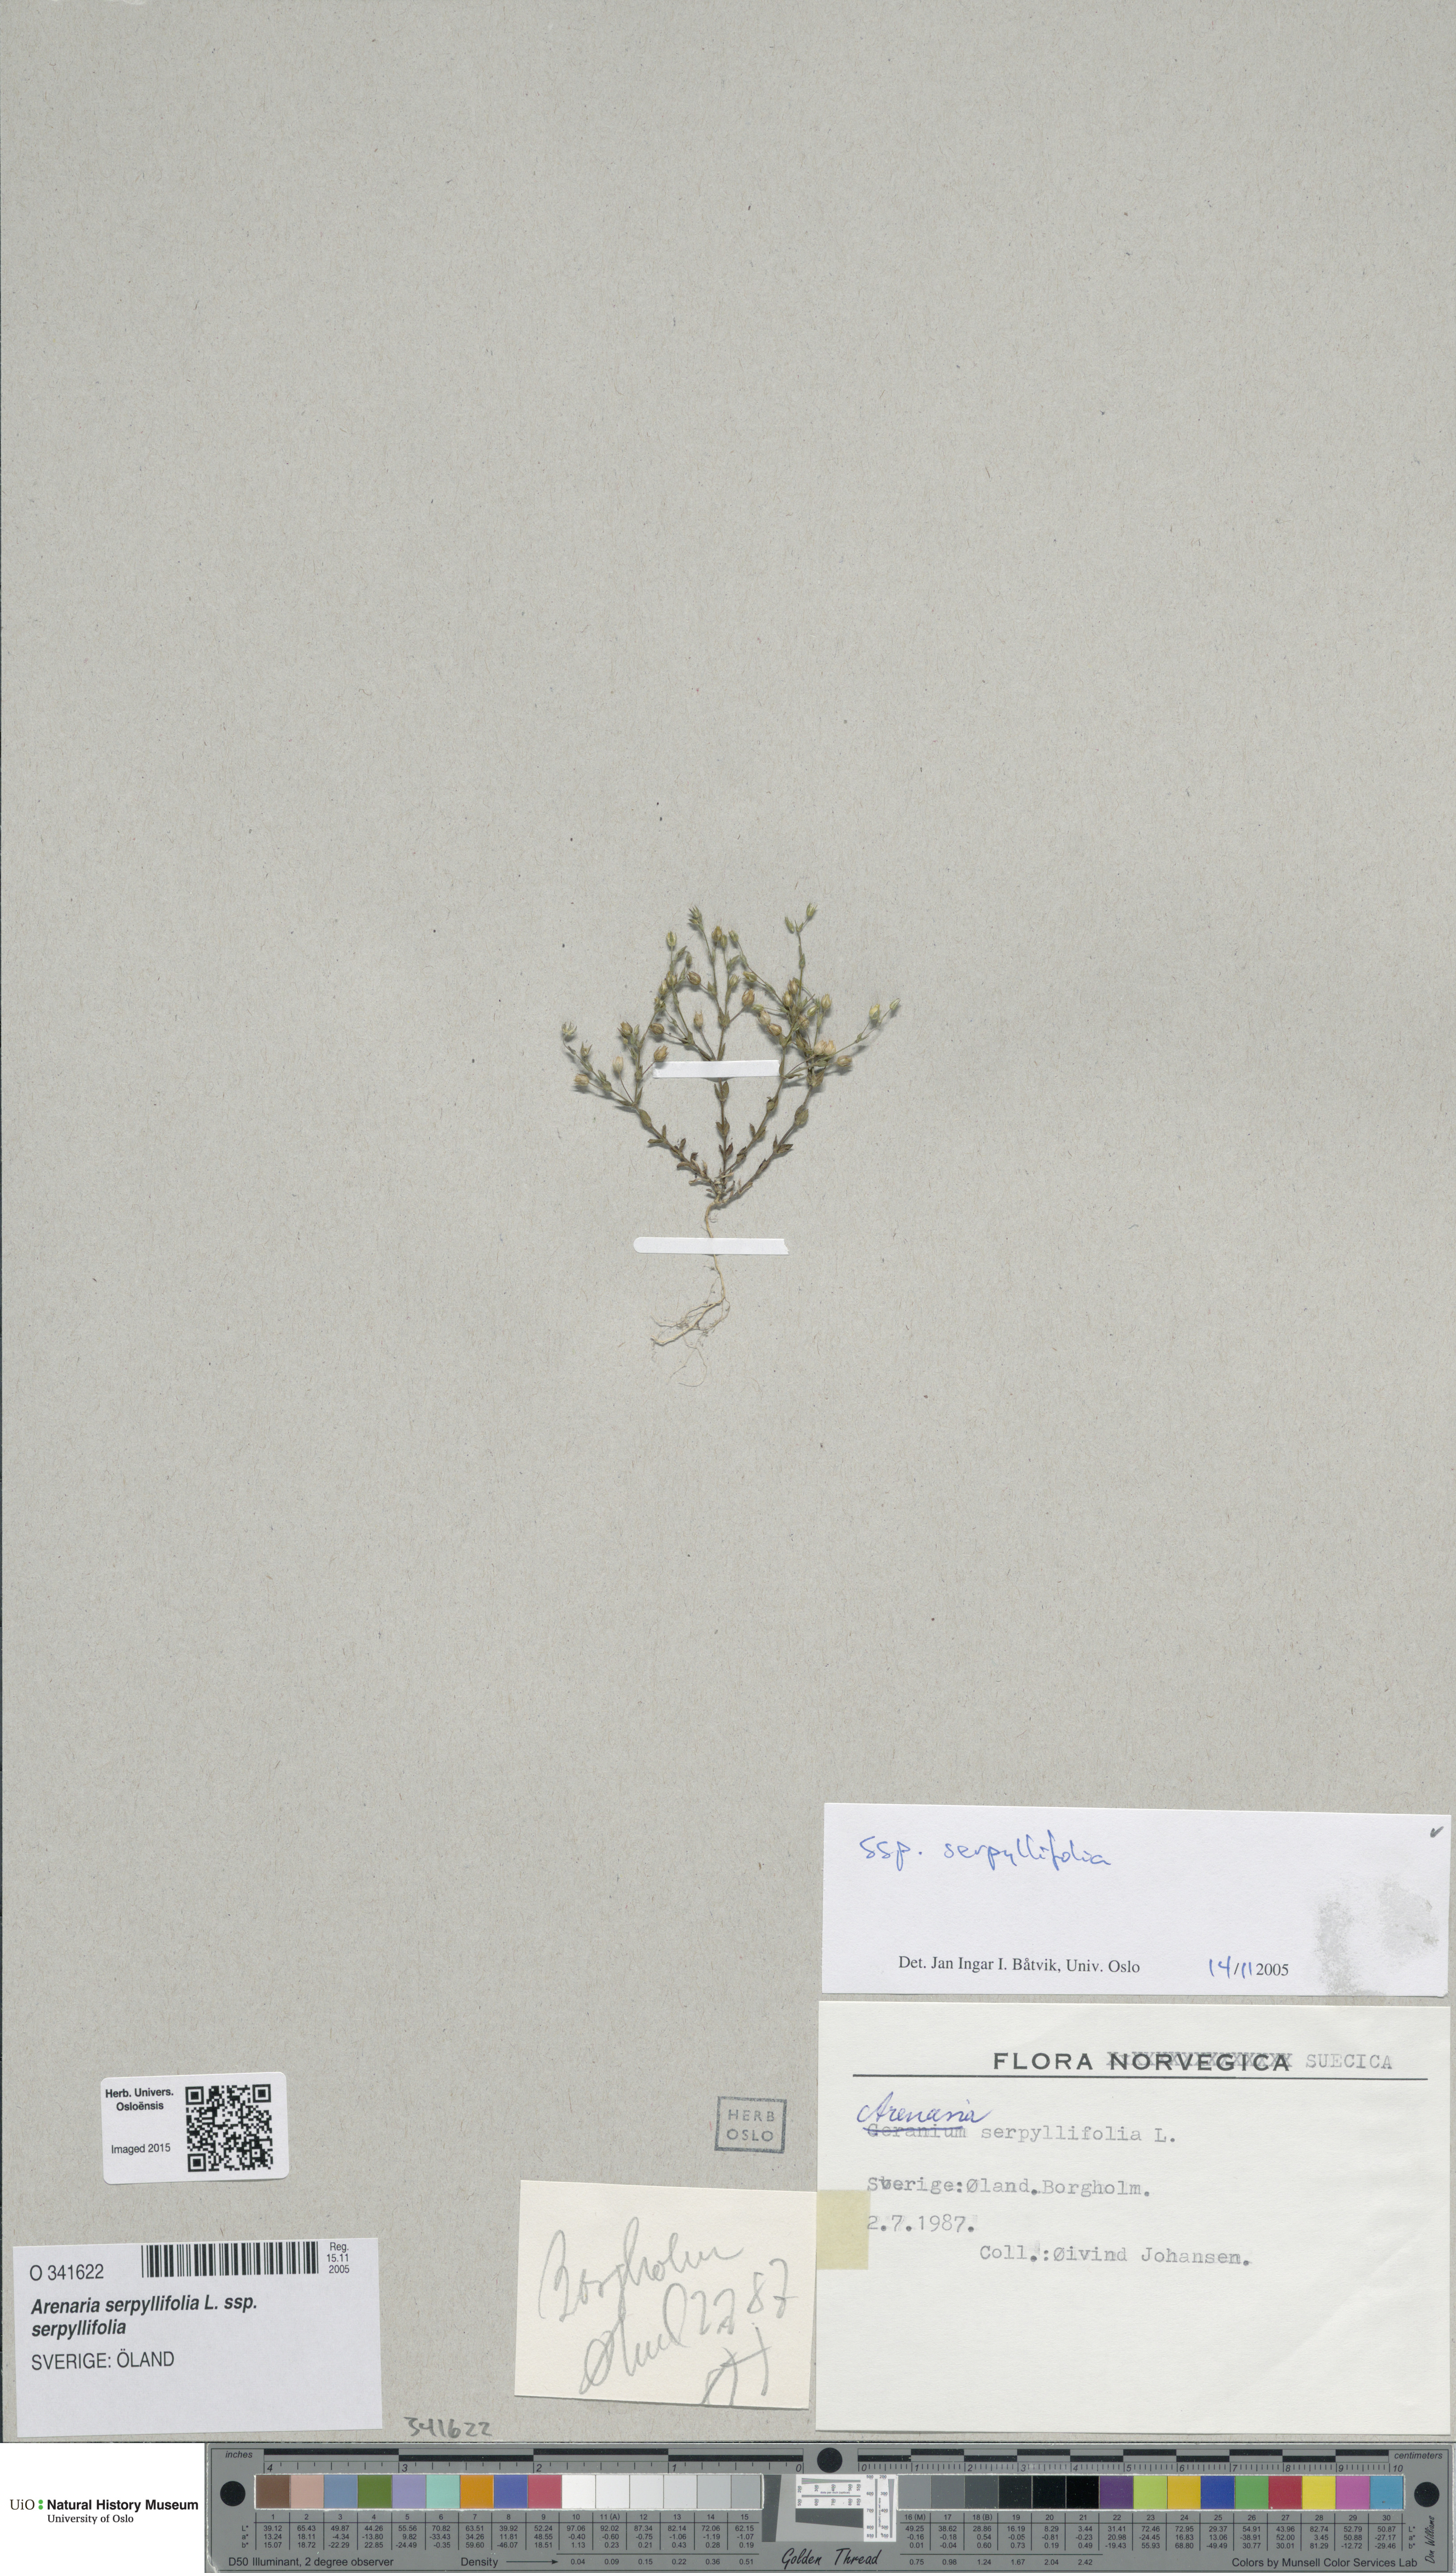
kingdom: Plantae
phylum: Tracheophyta
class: Magnoliopsida
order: Caryophyllales
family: Caryophyllaceae
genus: Arenaria
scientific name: Arenaria serpyllifolia
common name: Thyme-leaved sandwort
